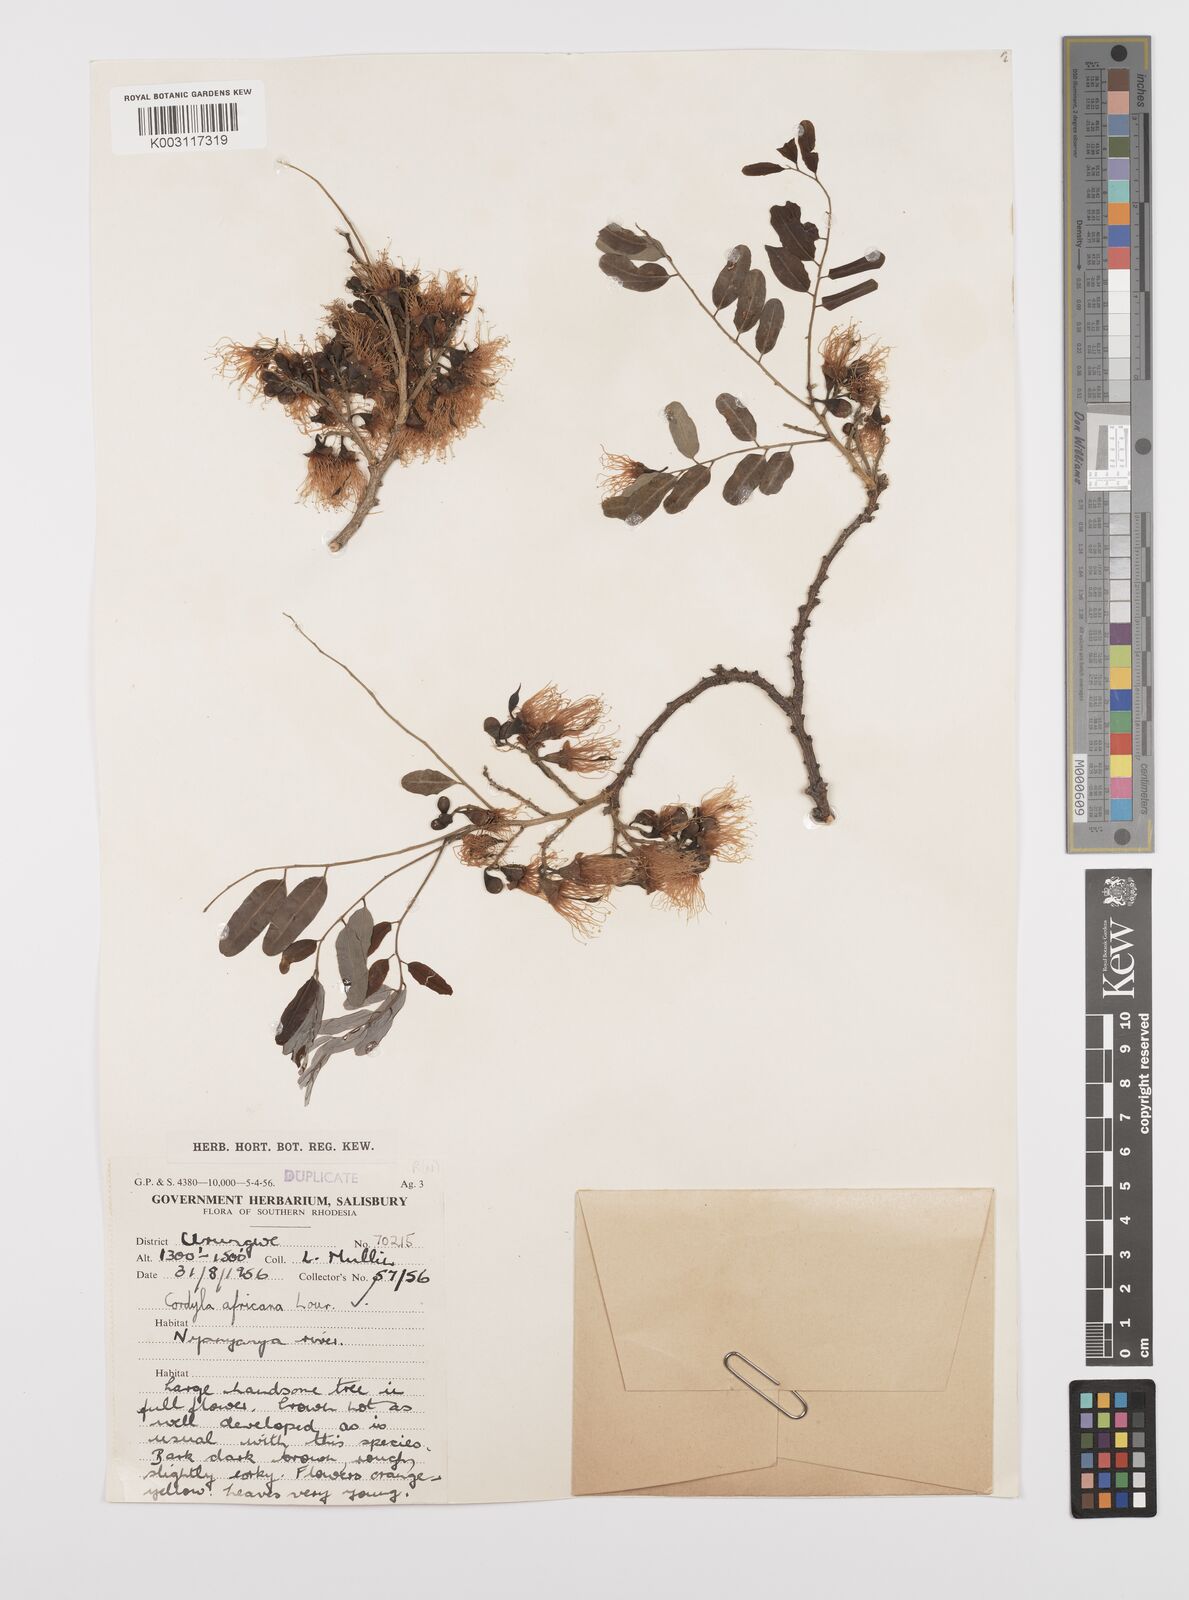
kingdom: Plantae
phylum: Tracheophyta
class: Magnoliopsida
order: Fabales
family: Fabaceae
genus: Cordyla
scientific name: Cordyla africana
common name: Wild mango
